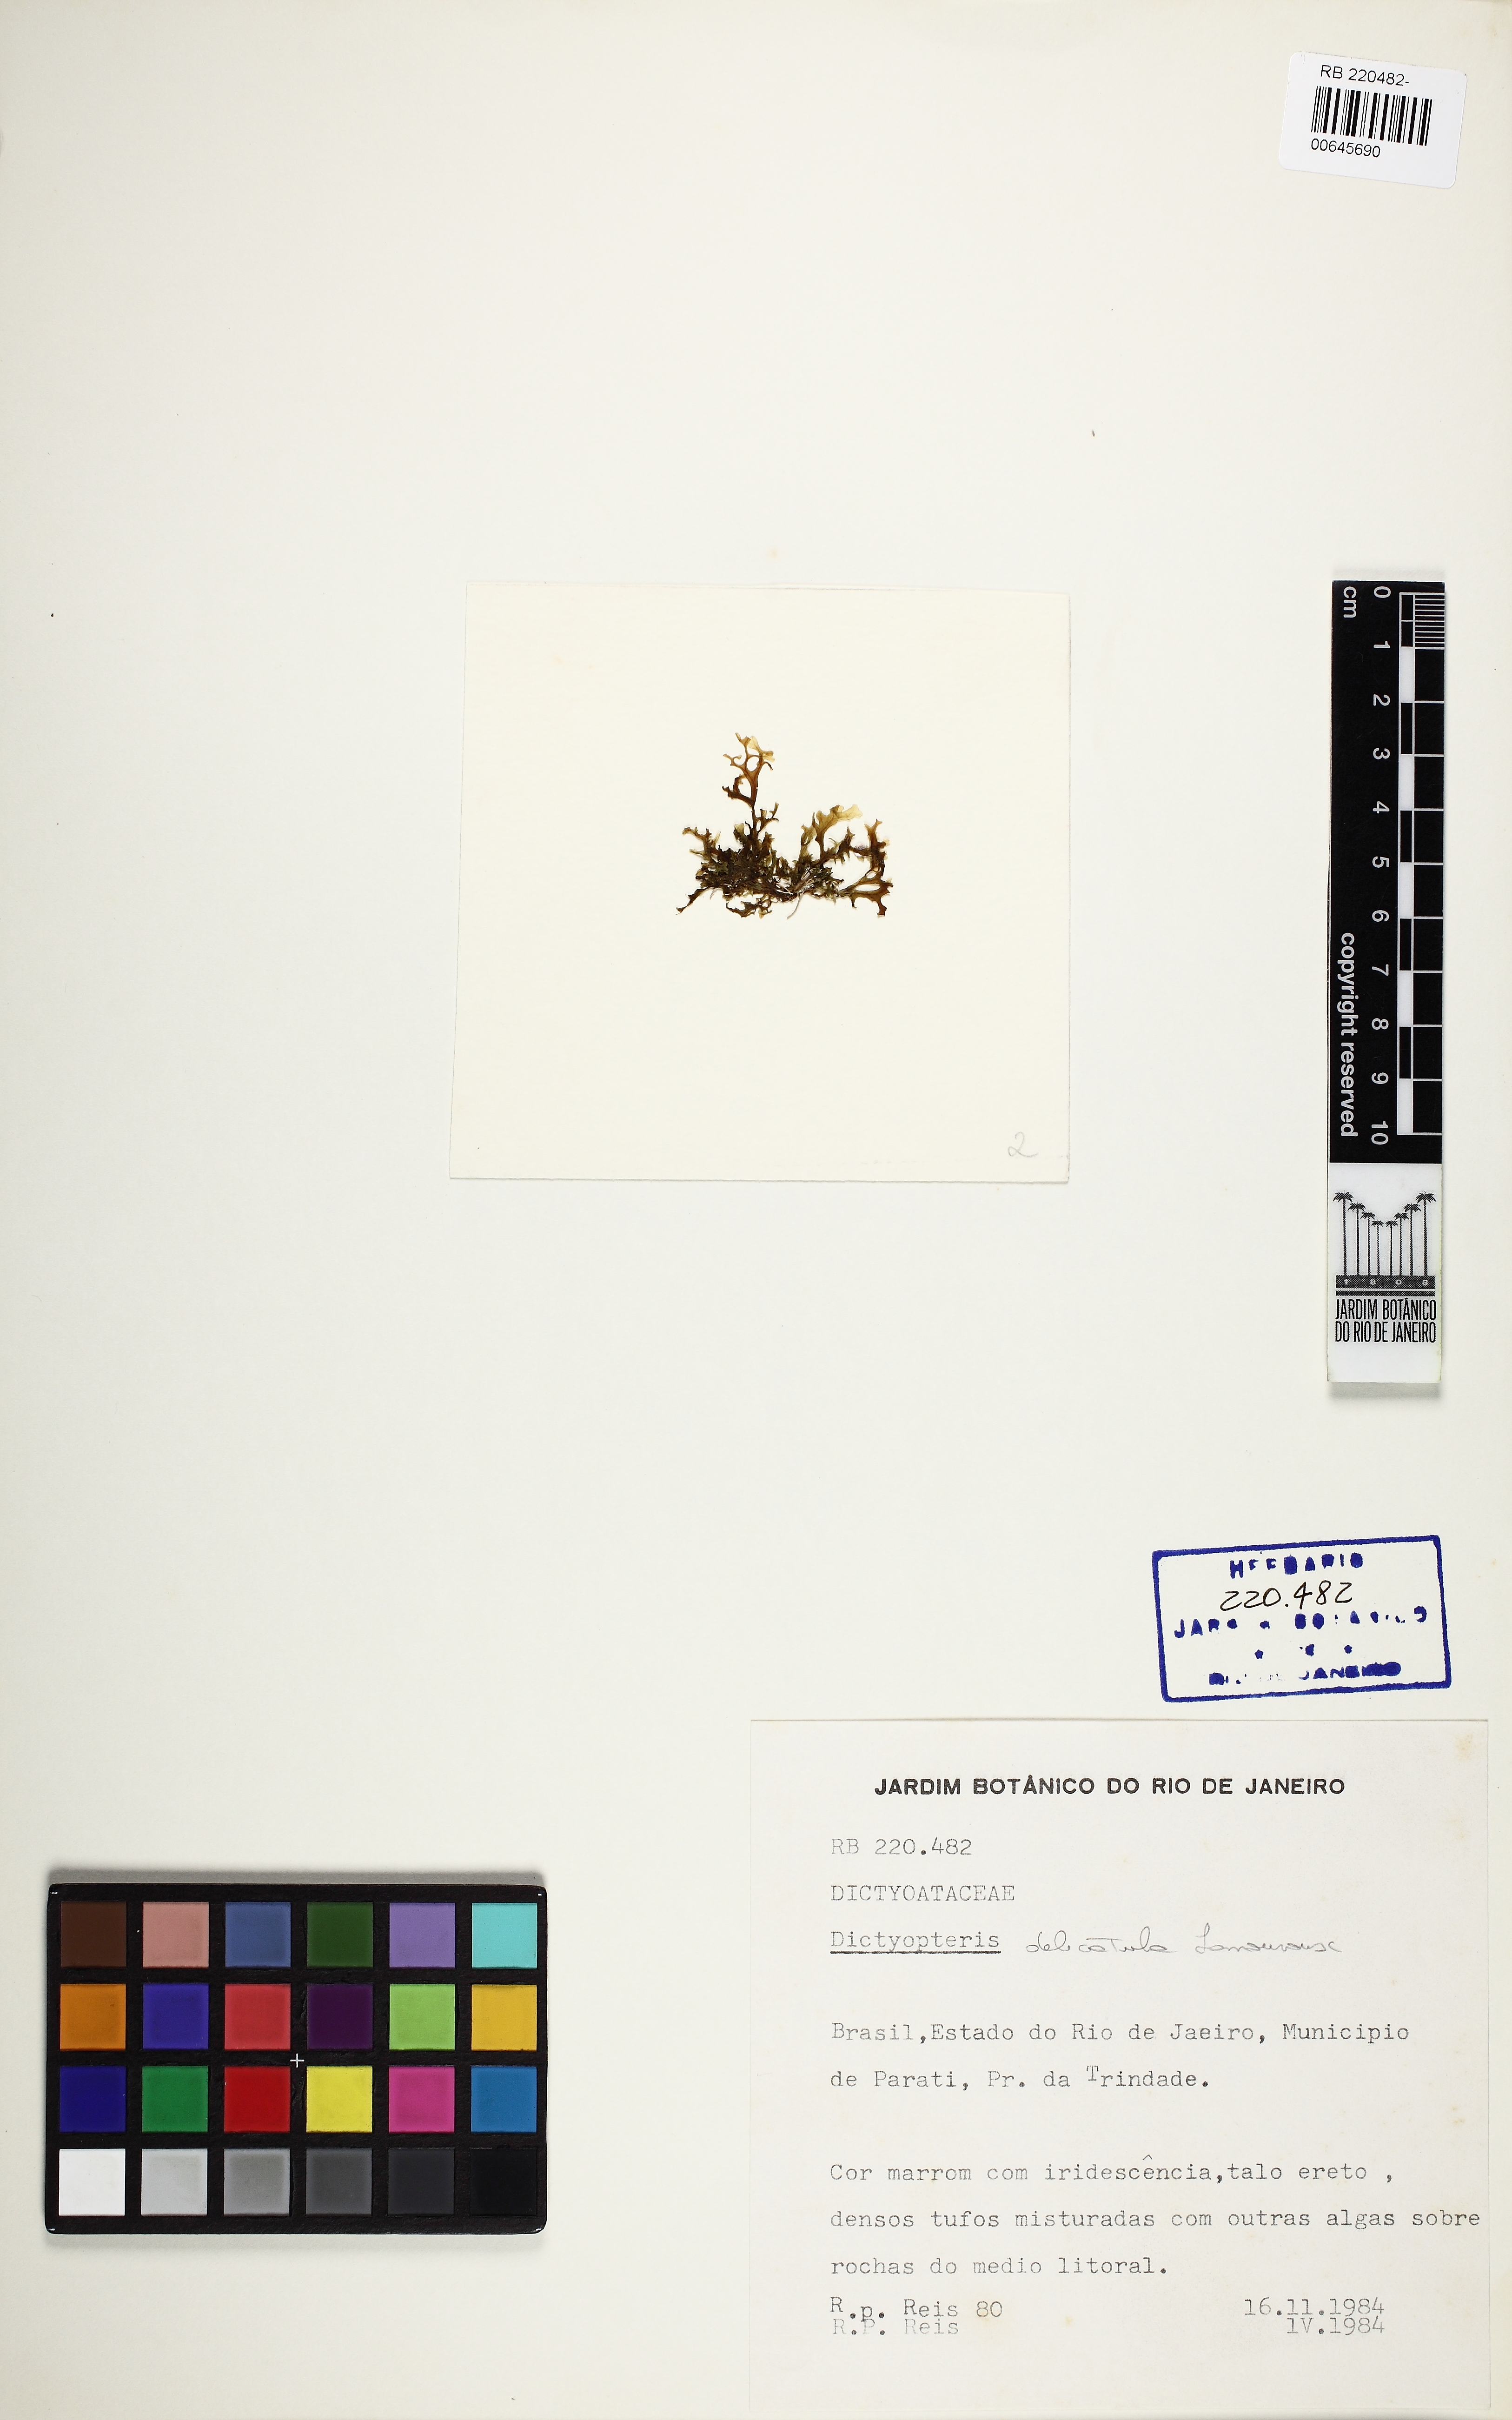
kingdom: Chromista
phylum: Ochrophyta
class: Phaeophyceae
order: Dictyotales
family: Dictyotaceae
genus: Dictyopteris
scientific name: Dictyopteris delicatula
